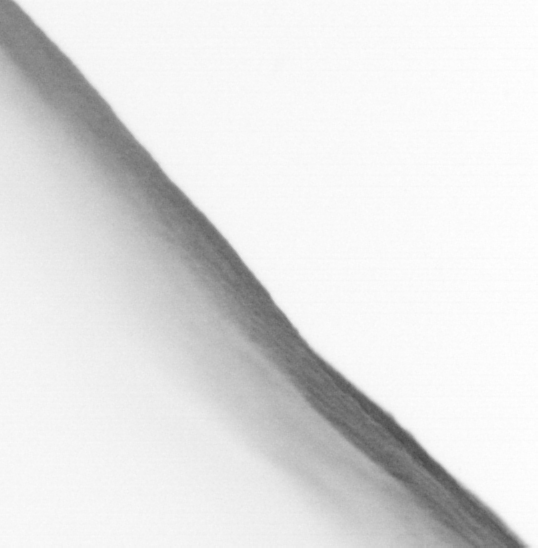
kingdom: Animalia
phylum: Chordata
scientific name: Chordata
